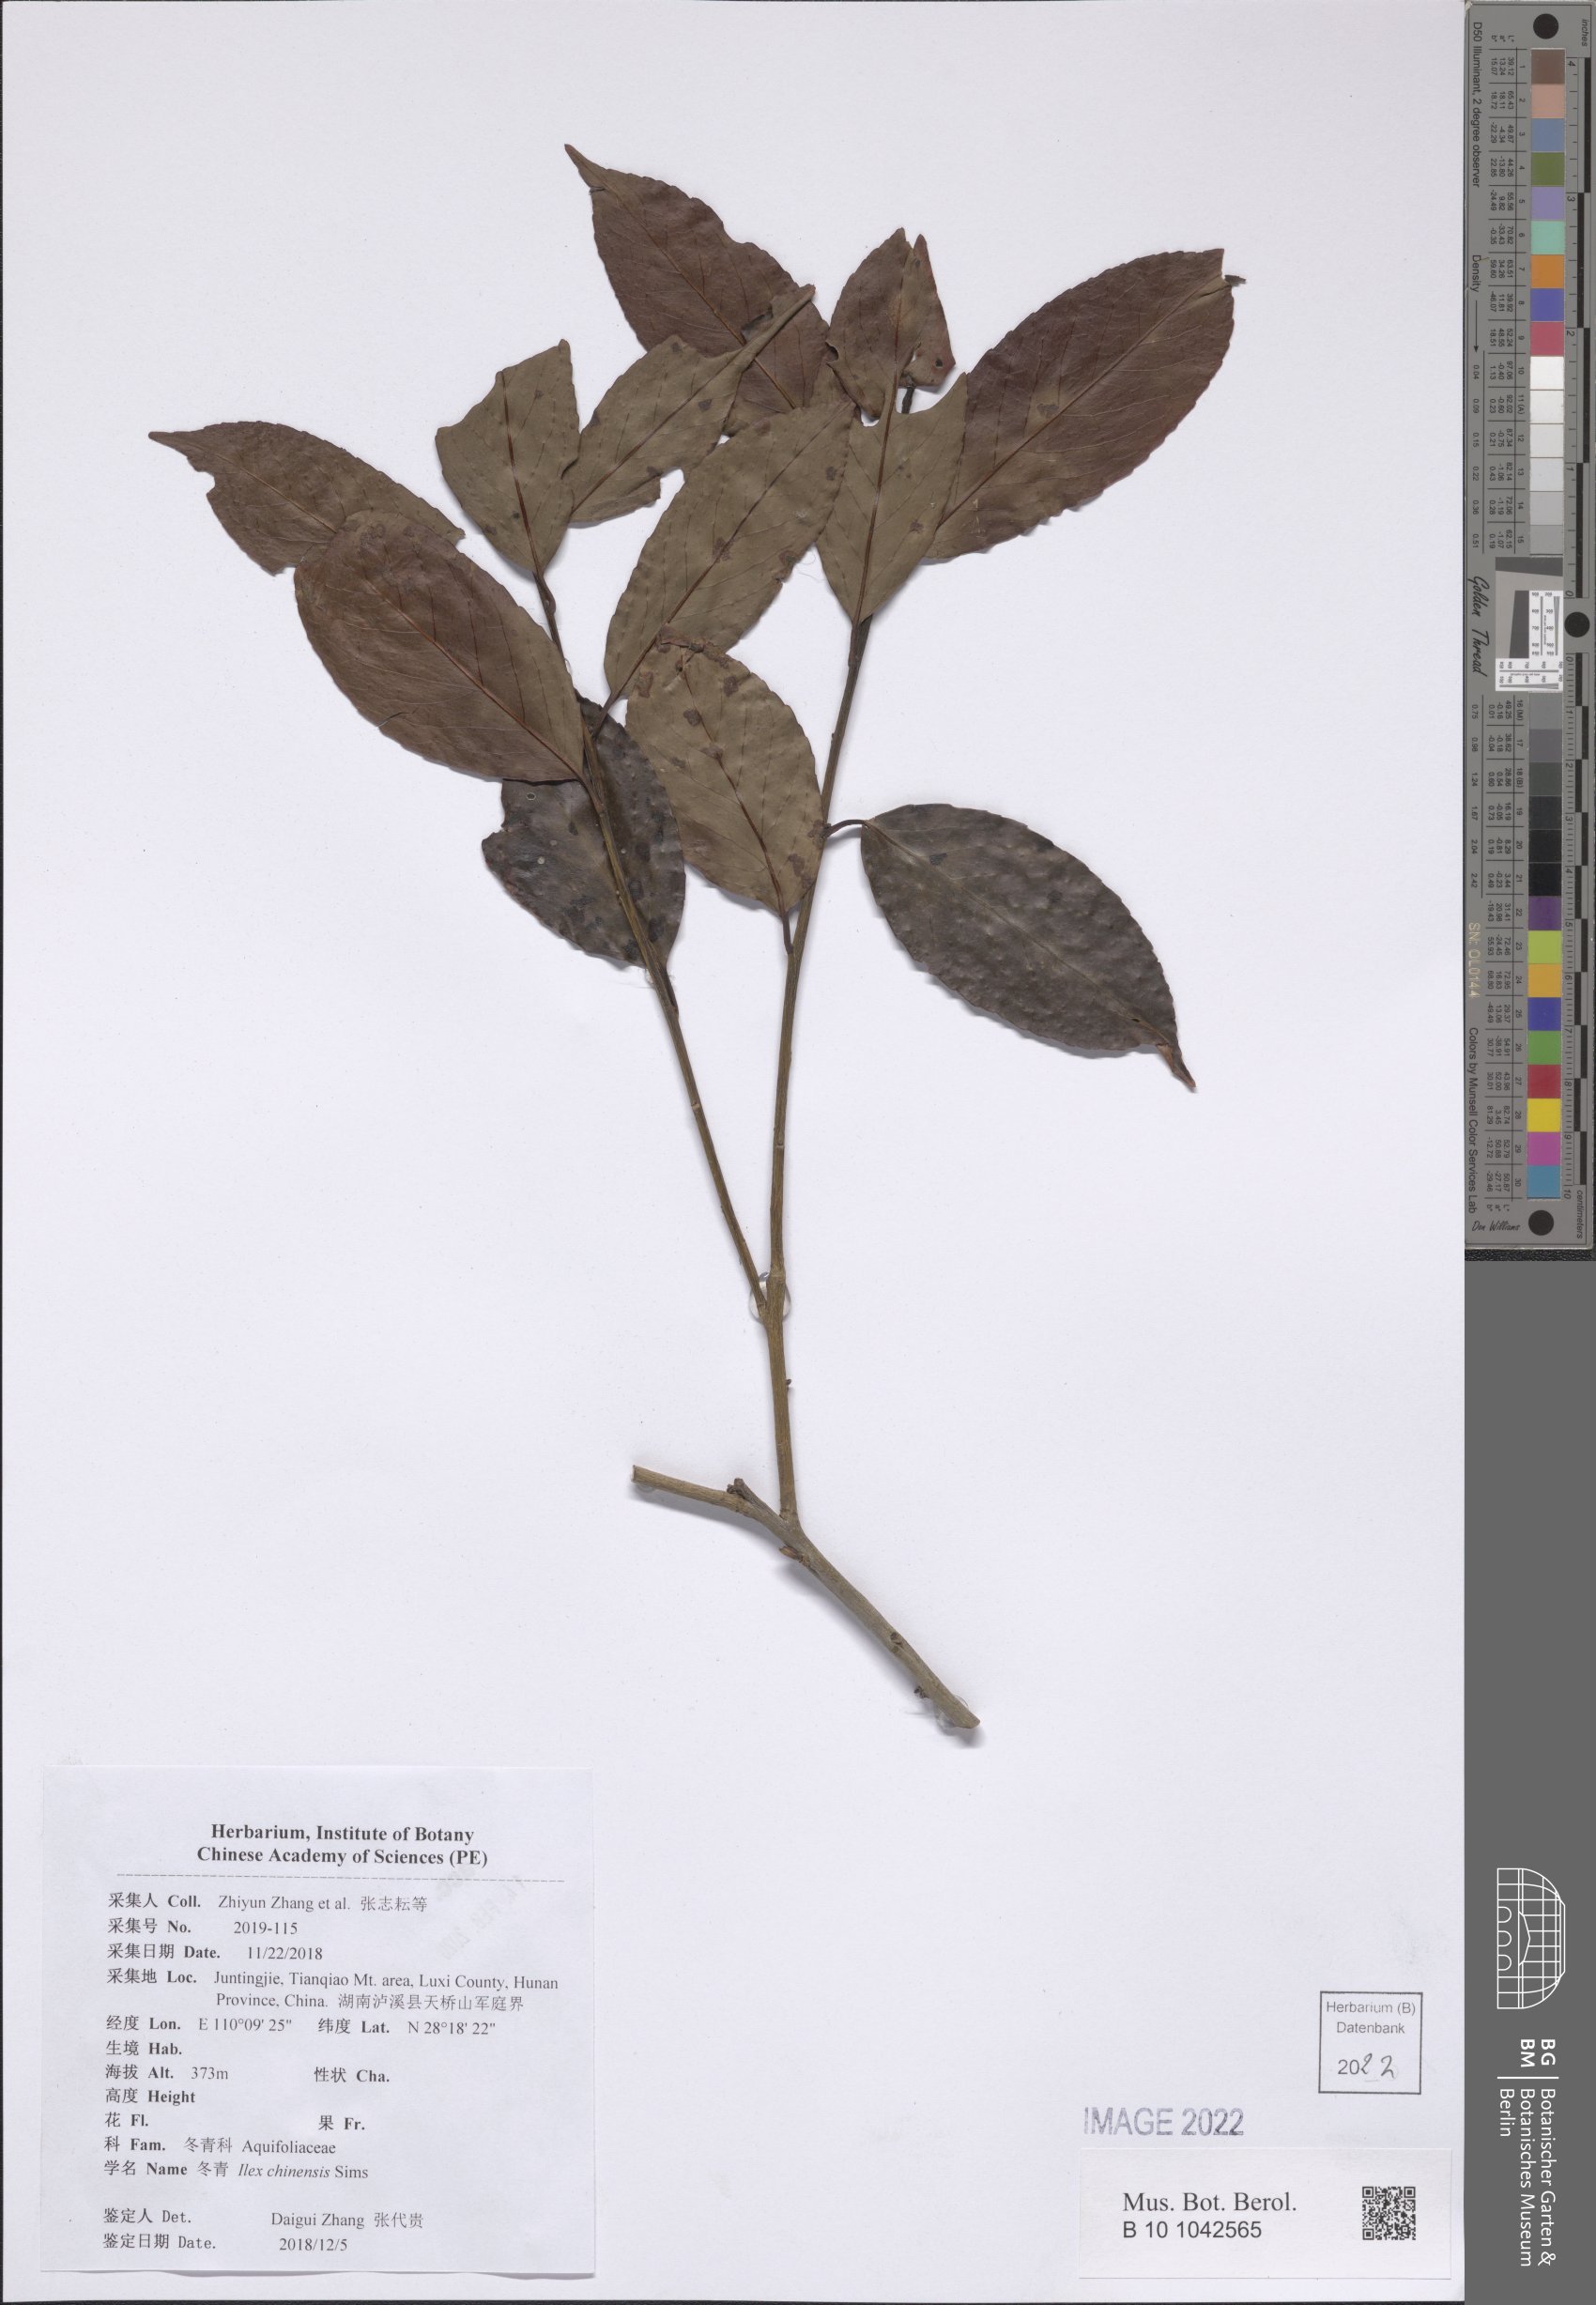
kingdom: Plantae
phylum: Tracheophyta
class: Magnoliopsida
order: Aquifoliales
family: Aquifoliaceae
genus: Ilex
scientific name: Ilex chinensis
